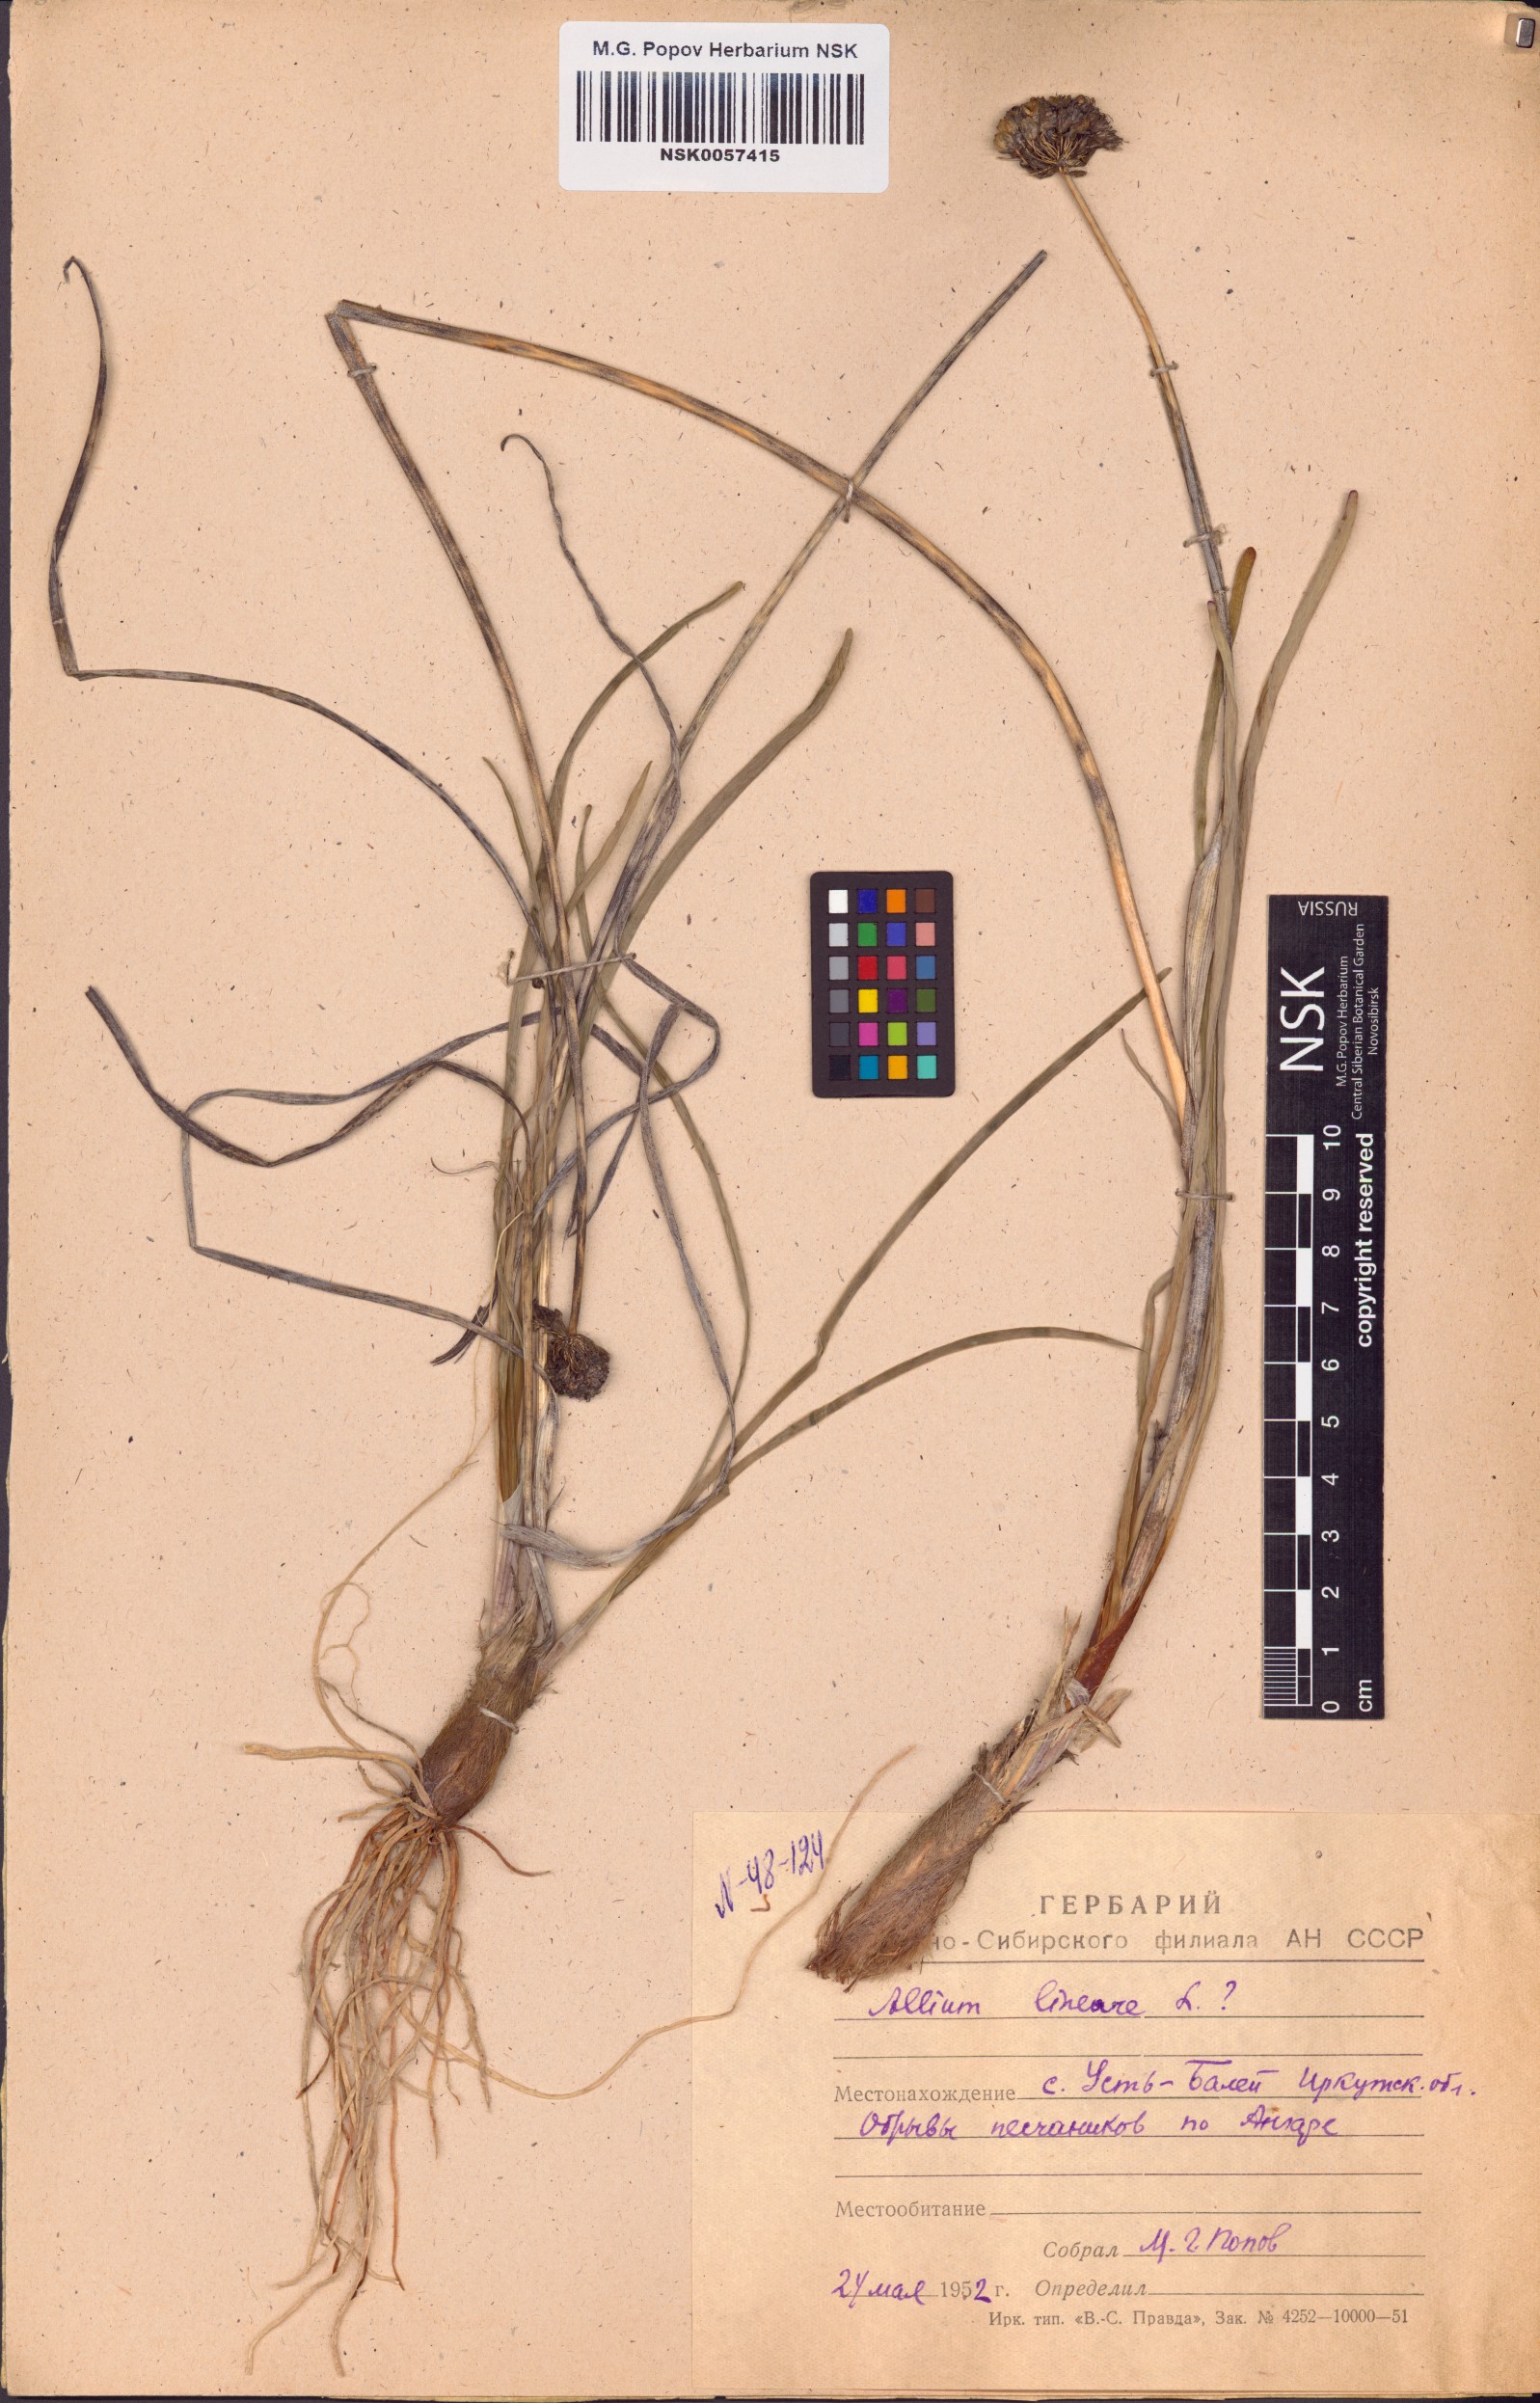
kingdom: Plantae
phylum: Tracheophyta
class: Liliopsida
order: Asparagales
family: Amaryllidaceae
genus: Allium
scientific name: Allium lineare
